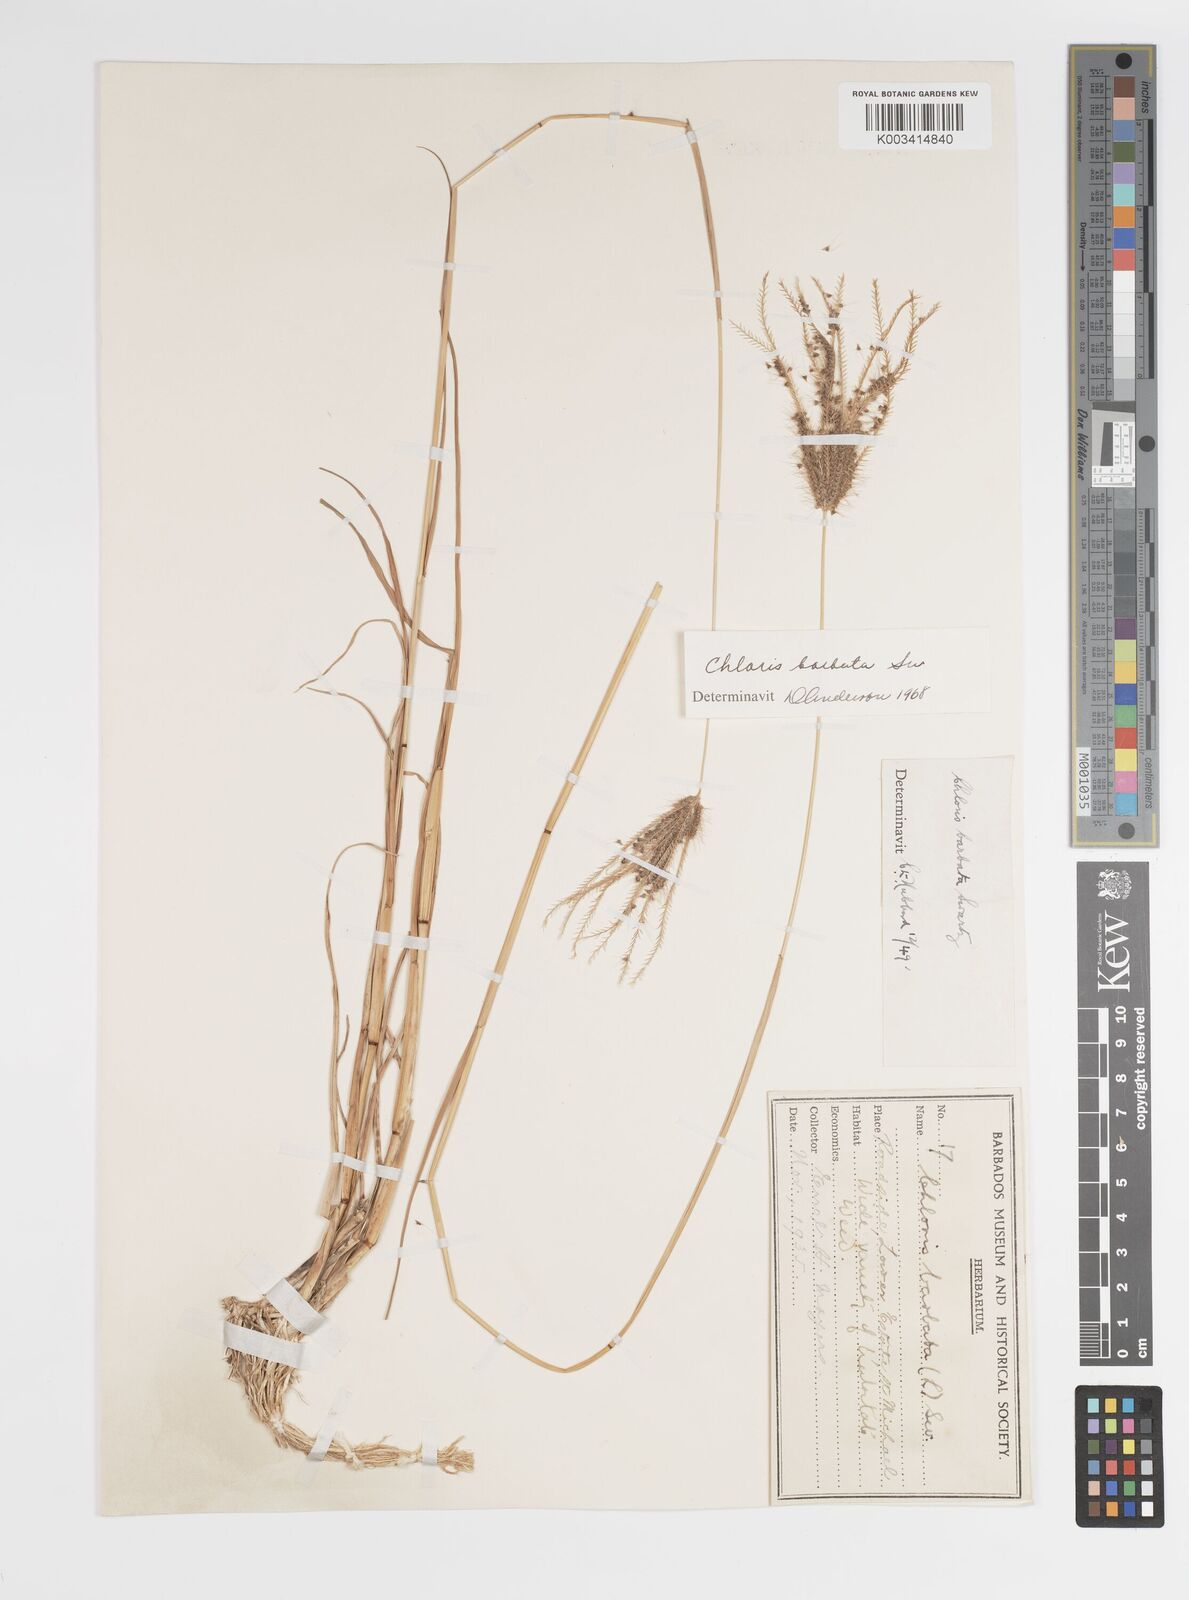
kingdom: Plantae
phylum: Tracheophyta
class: Liliopsida
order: Poales
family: Poaceae
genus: Chloris
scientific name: Chloris barbata
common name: Swollen fingergrass
